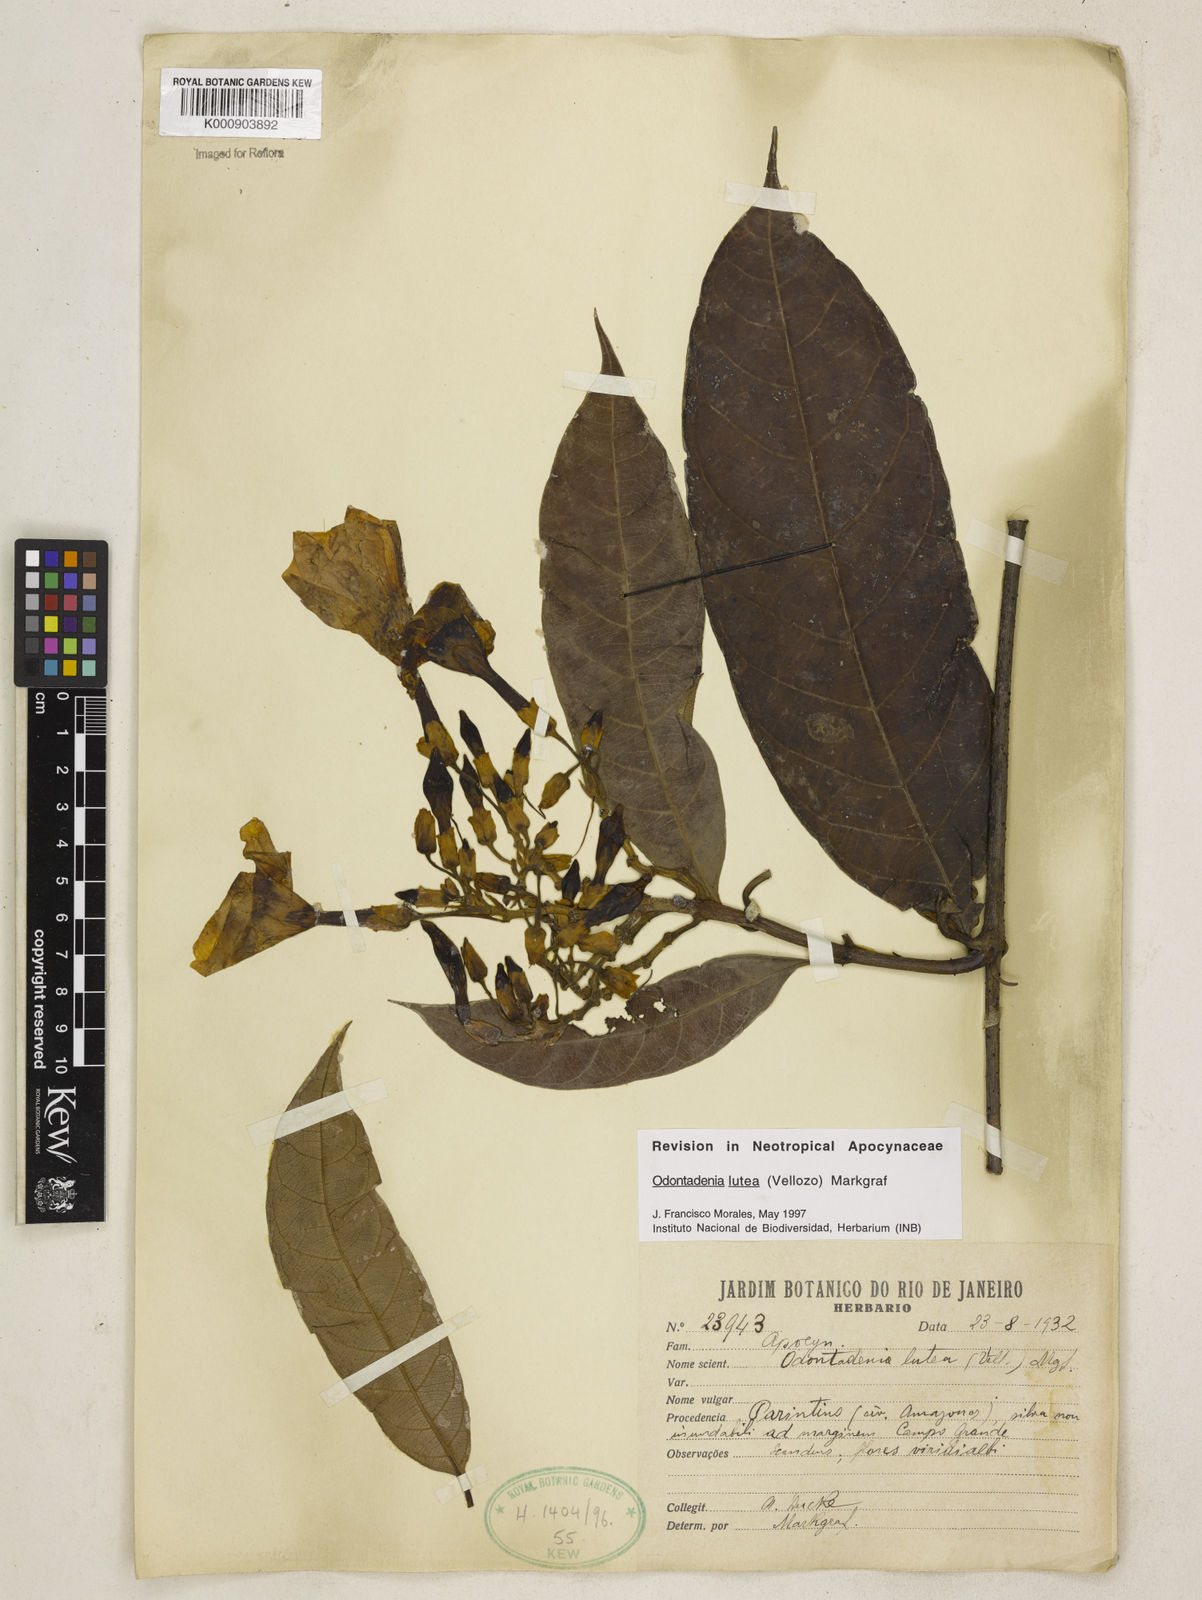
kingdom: Plantae
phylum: Tracheophyta
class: Magnoliopsida
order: Gentianales
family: Apocynaceae
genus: Odontadenia
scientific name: Odontadenia lutea
